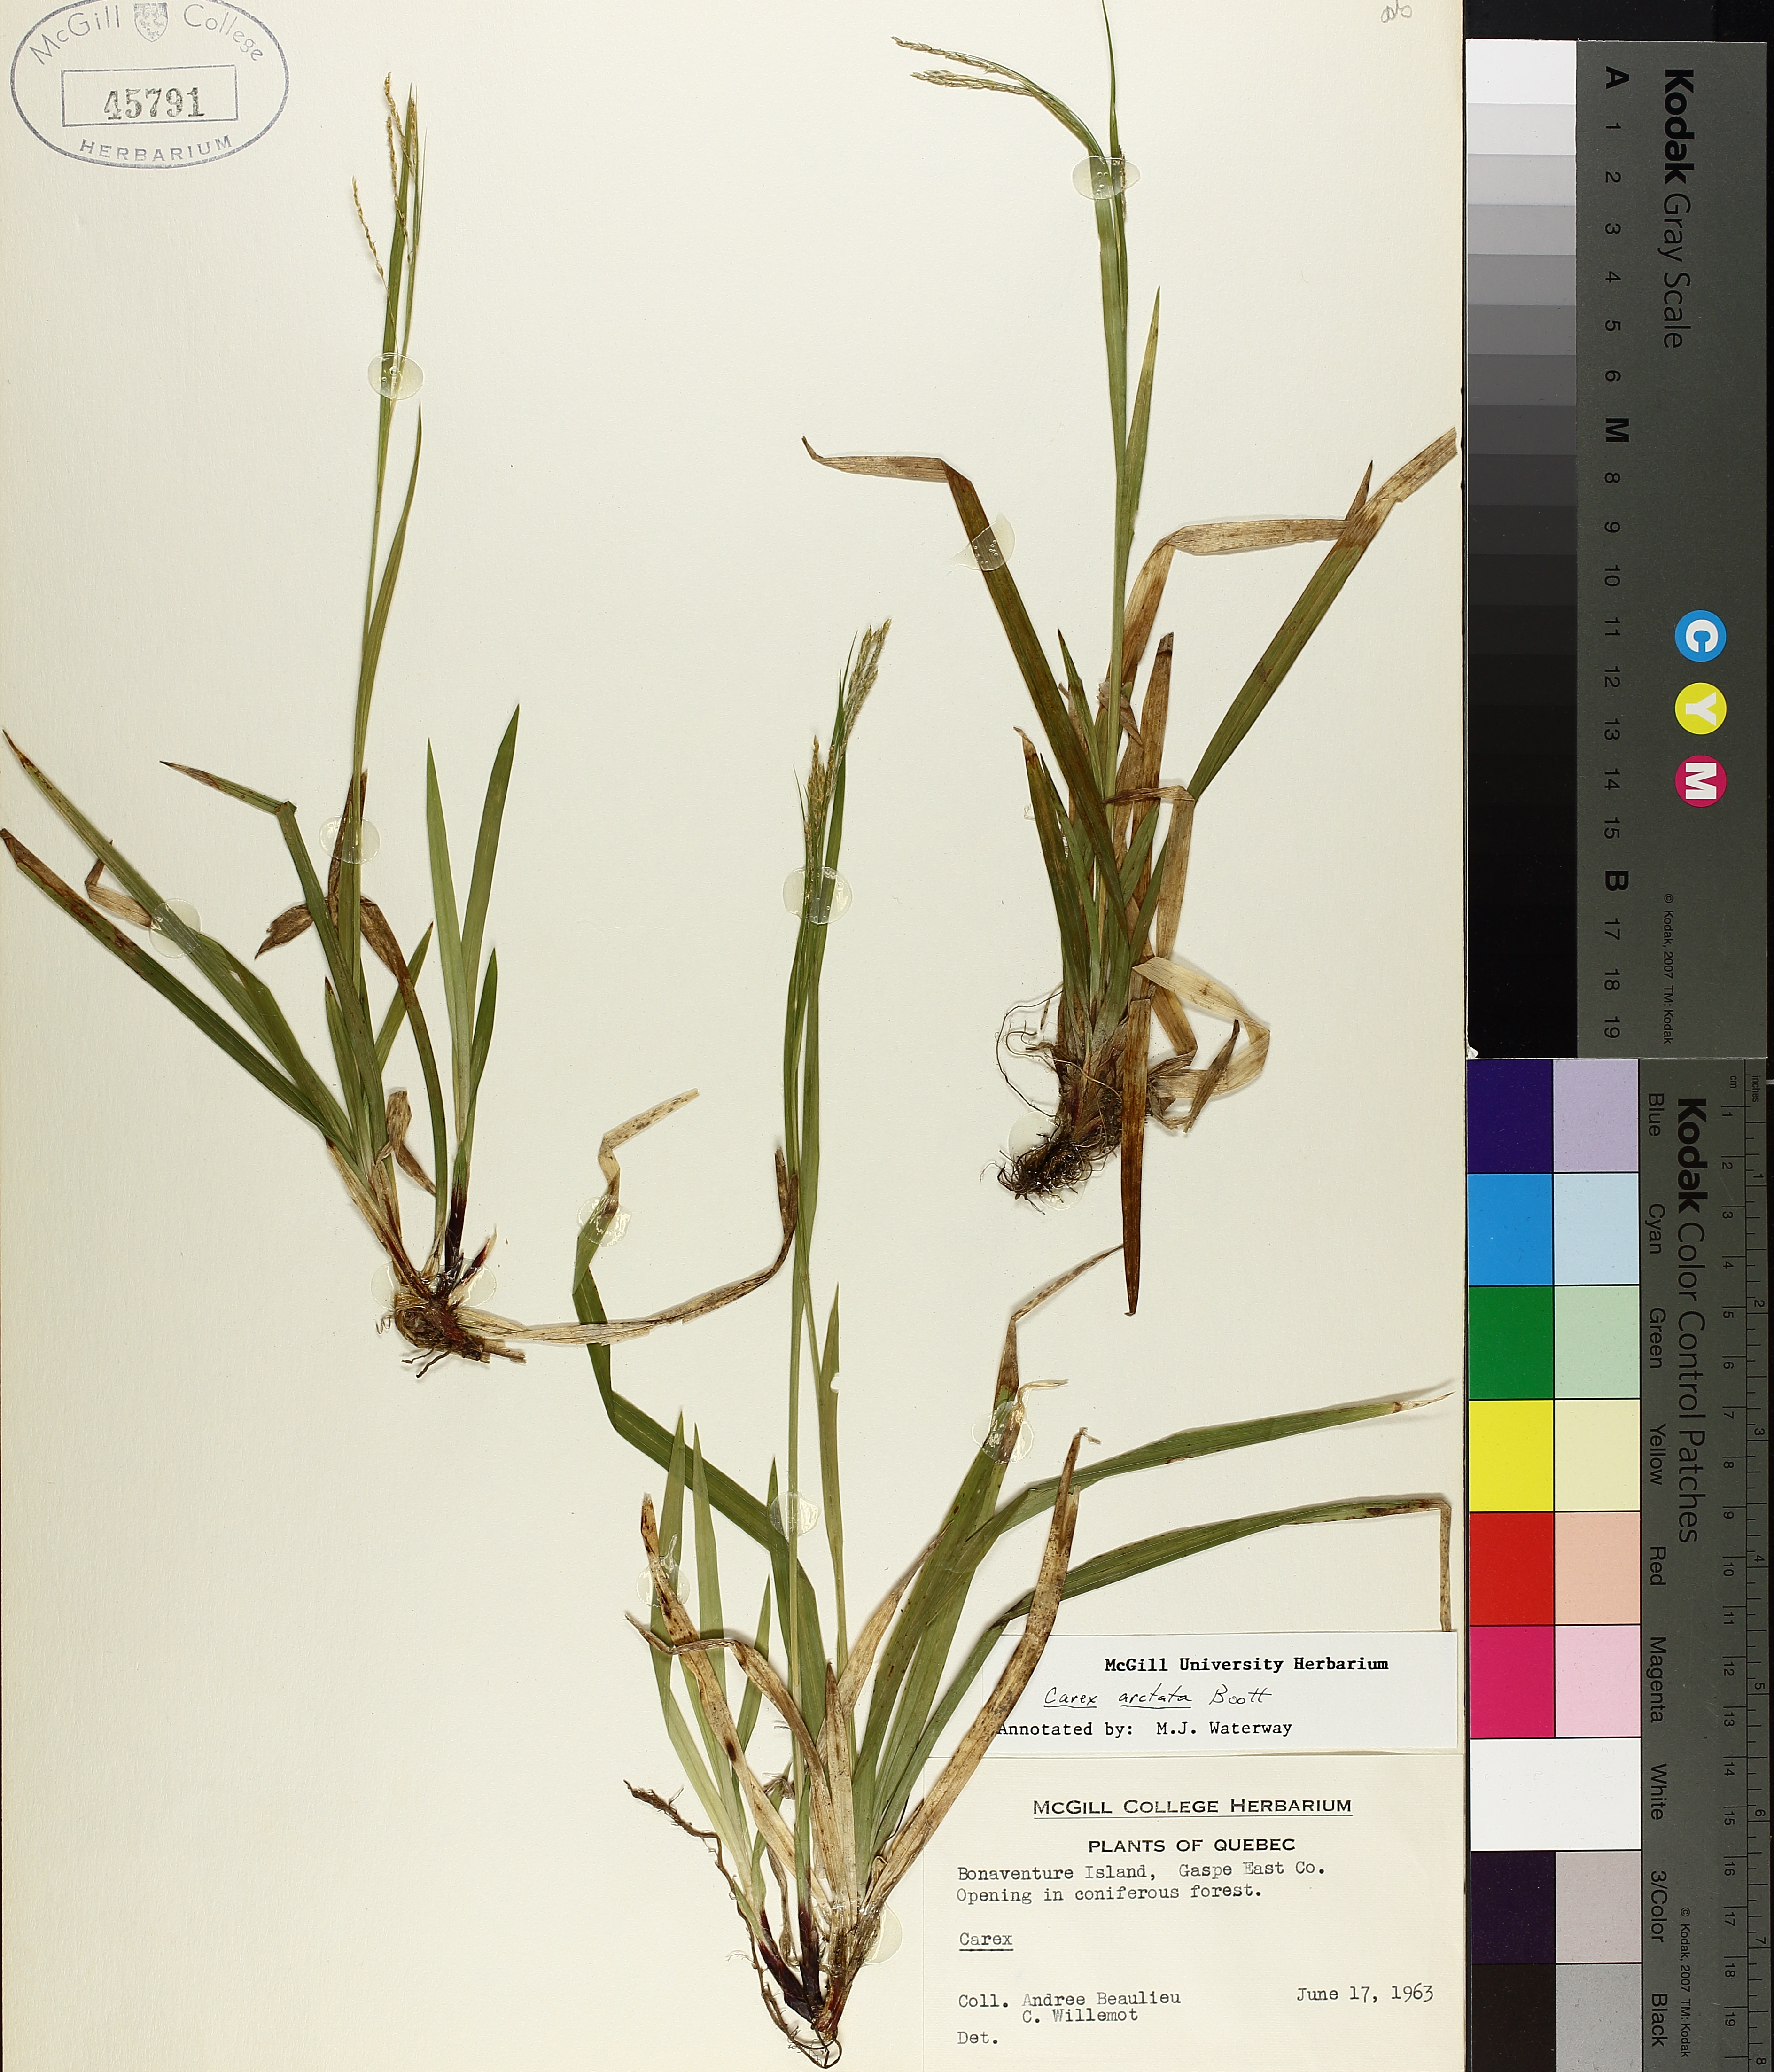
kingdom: Plantae
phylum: Tracheophyta
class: Liliopsida
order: Poales
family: Cyperaceae
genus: Carex
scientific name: Carex arctata
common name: Black sedge
